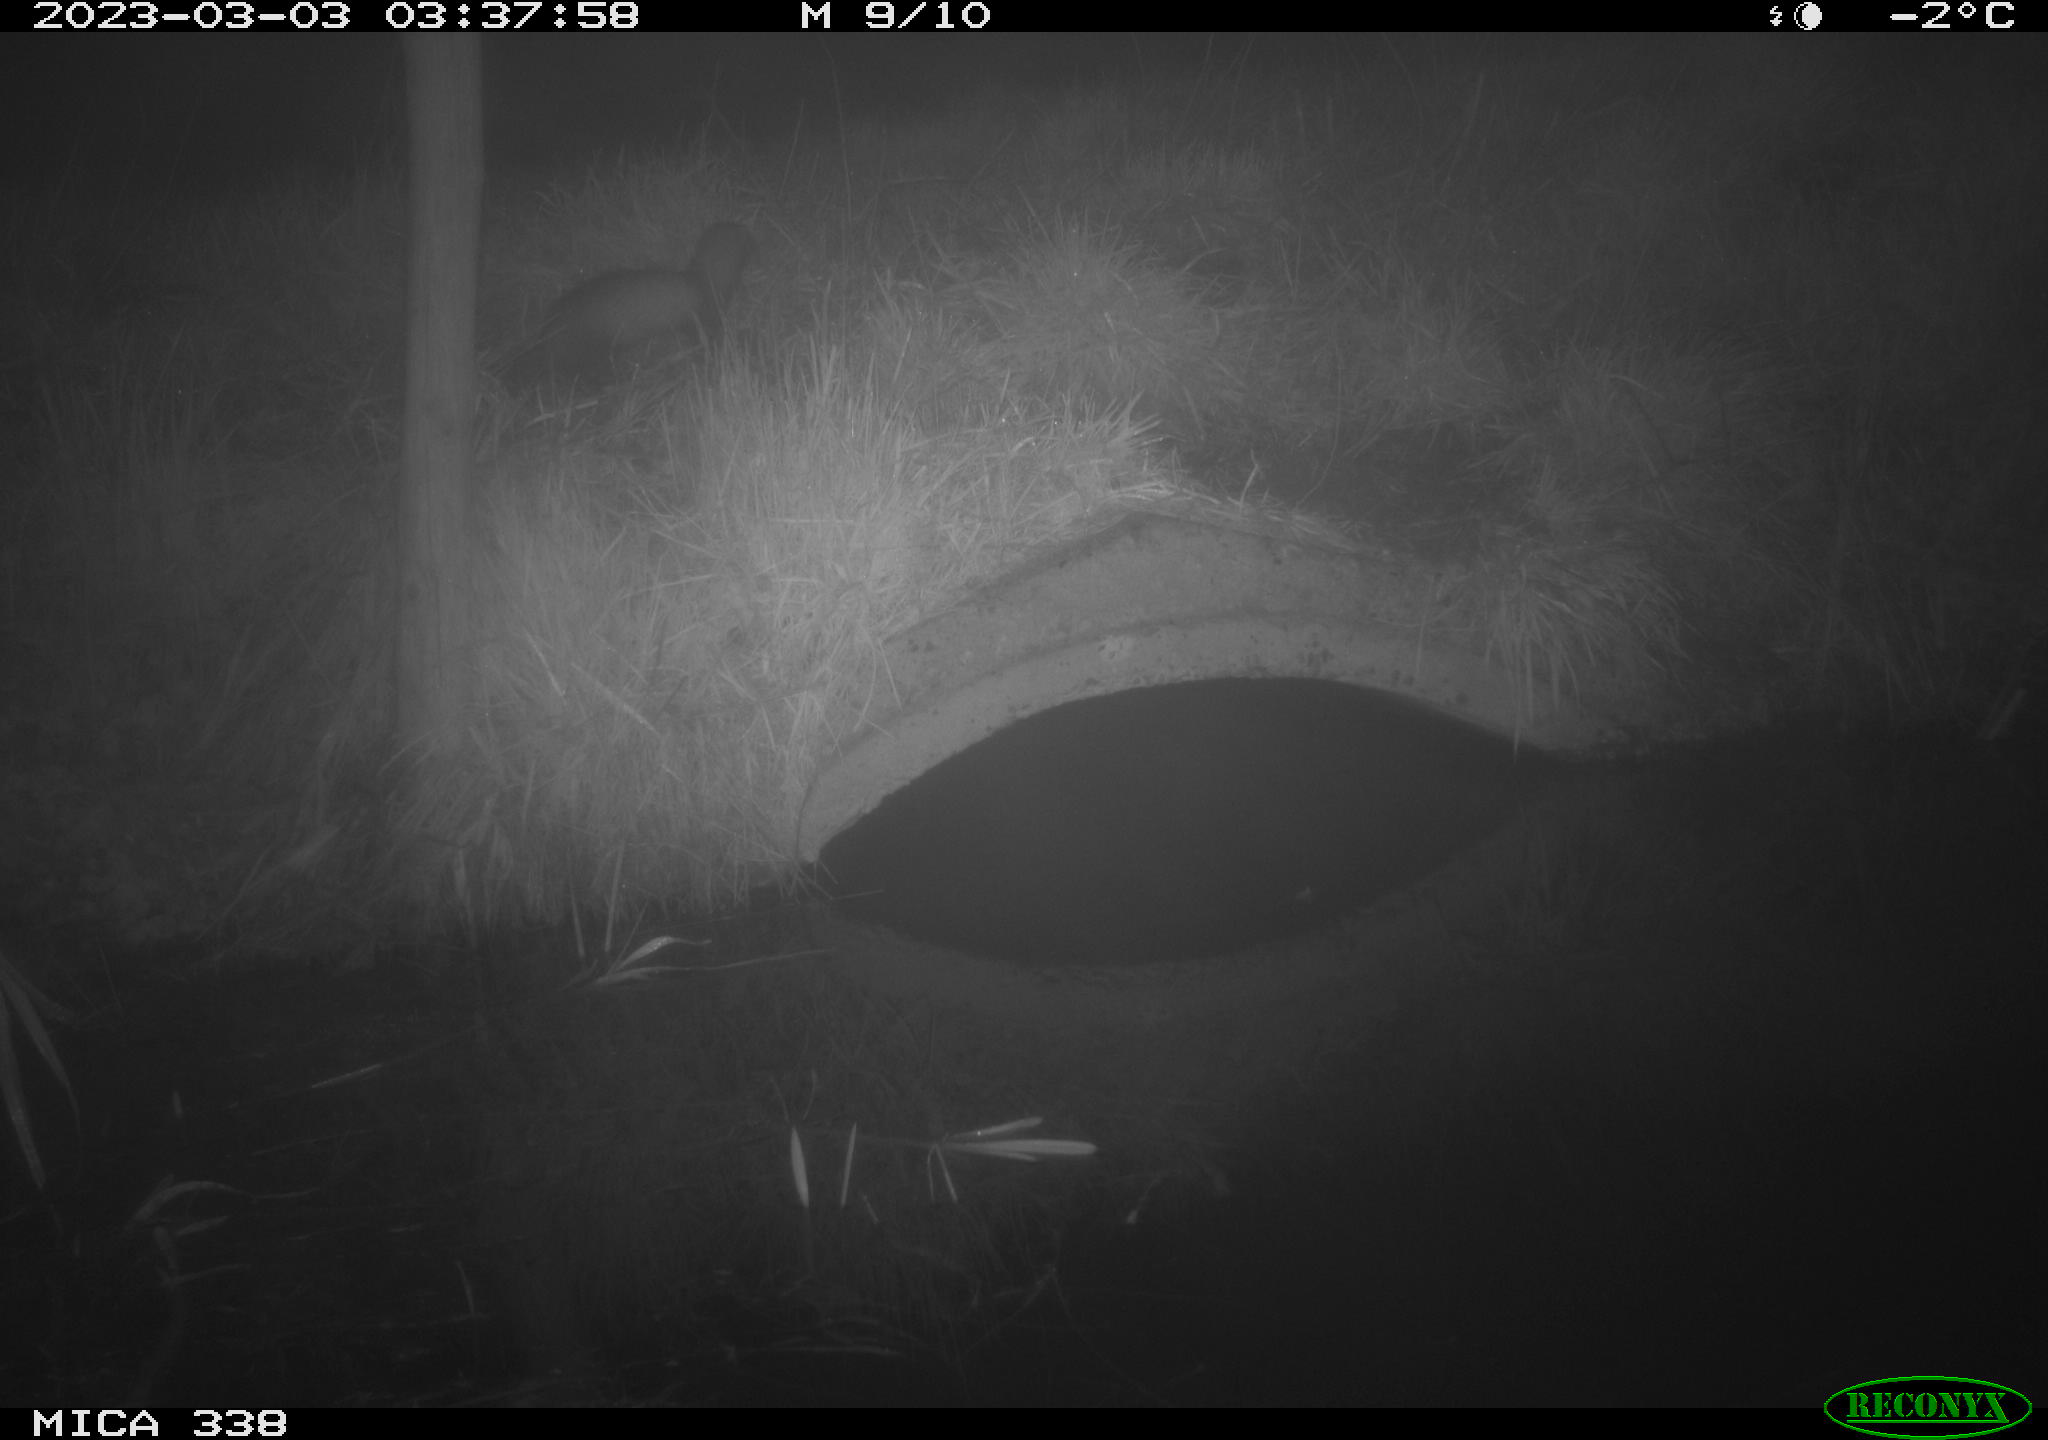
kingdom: Animalia
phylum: Chordata
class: Mammalia
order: Carnivora
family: Mustelidae
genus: Martes
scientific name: Martes
